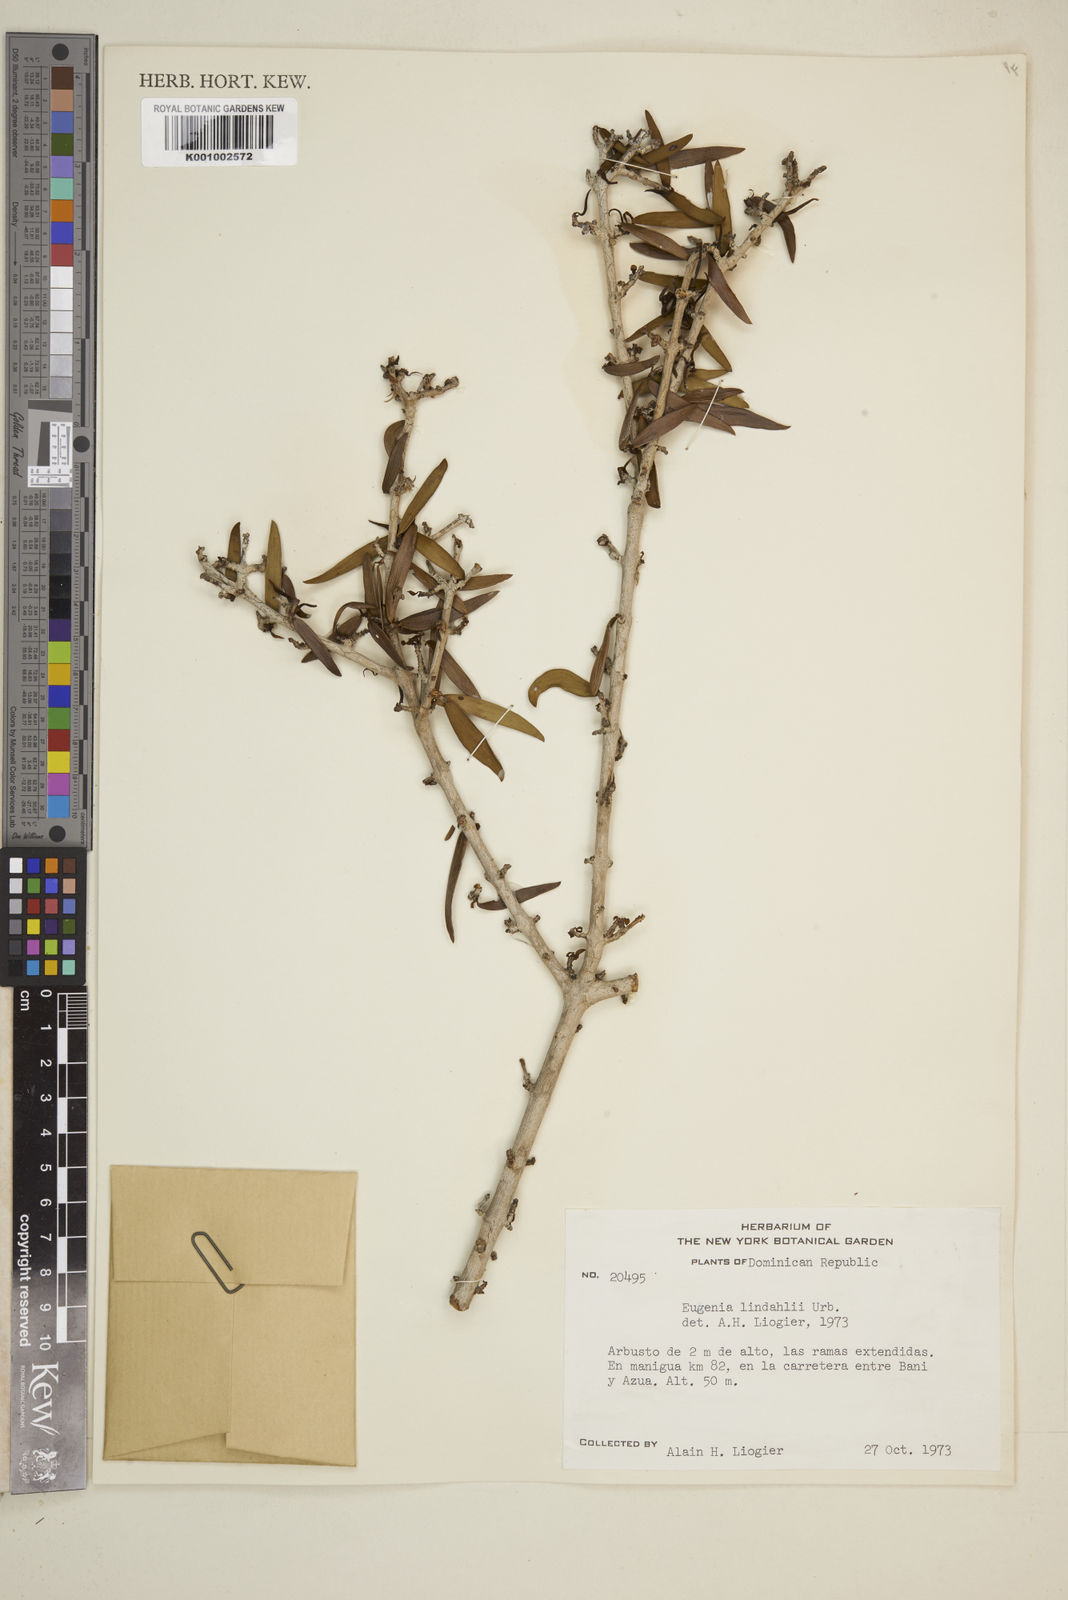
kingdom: Plantae
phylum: Tracheophyta
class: Magnoliopsida
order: Myrtales
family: Myrtaceae
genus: Eugenia
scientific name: Eugenia lindahlii
